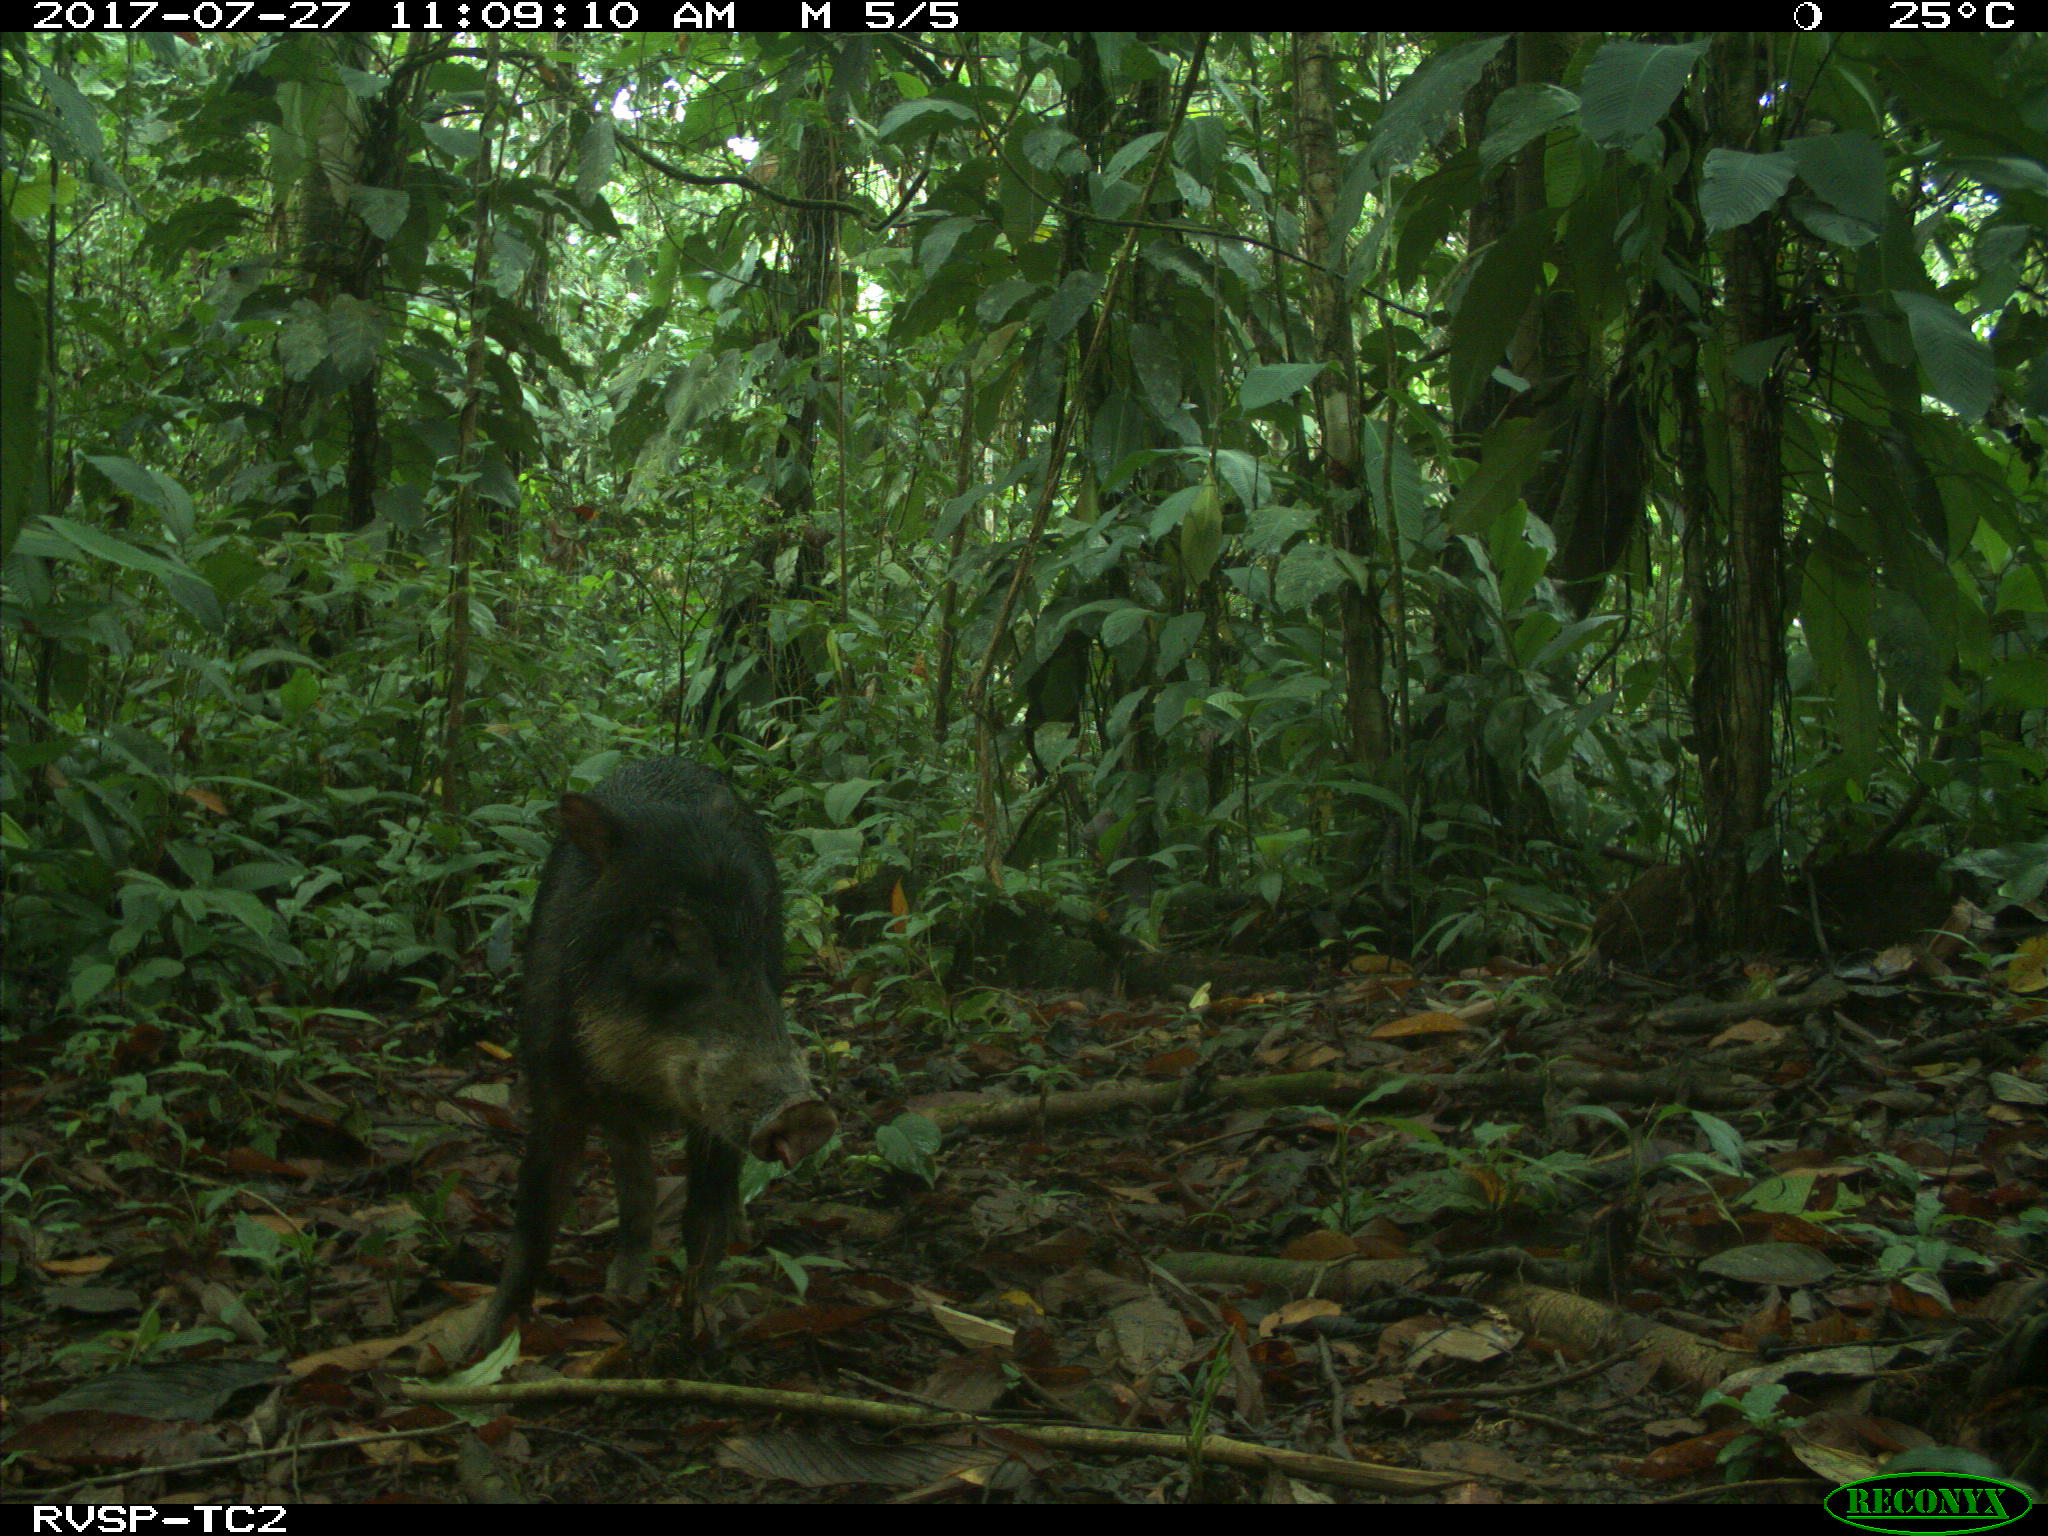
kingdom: Animalia
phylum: Chordata
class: Mammalia
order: Artiodactyla
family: Tayassuidae
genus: Tayassu
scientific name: Tayassu pecari
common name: White-lipped peccary
